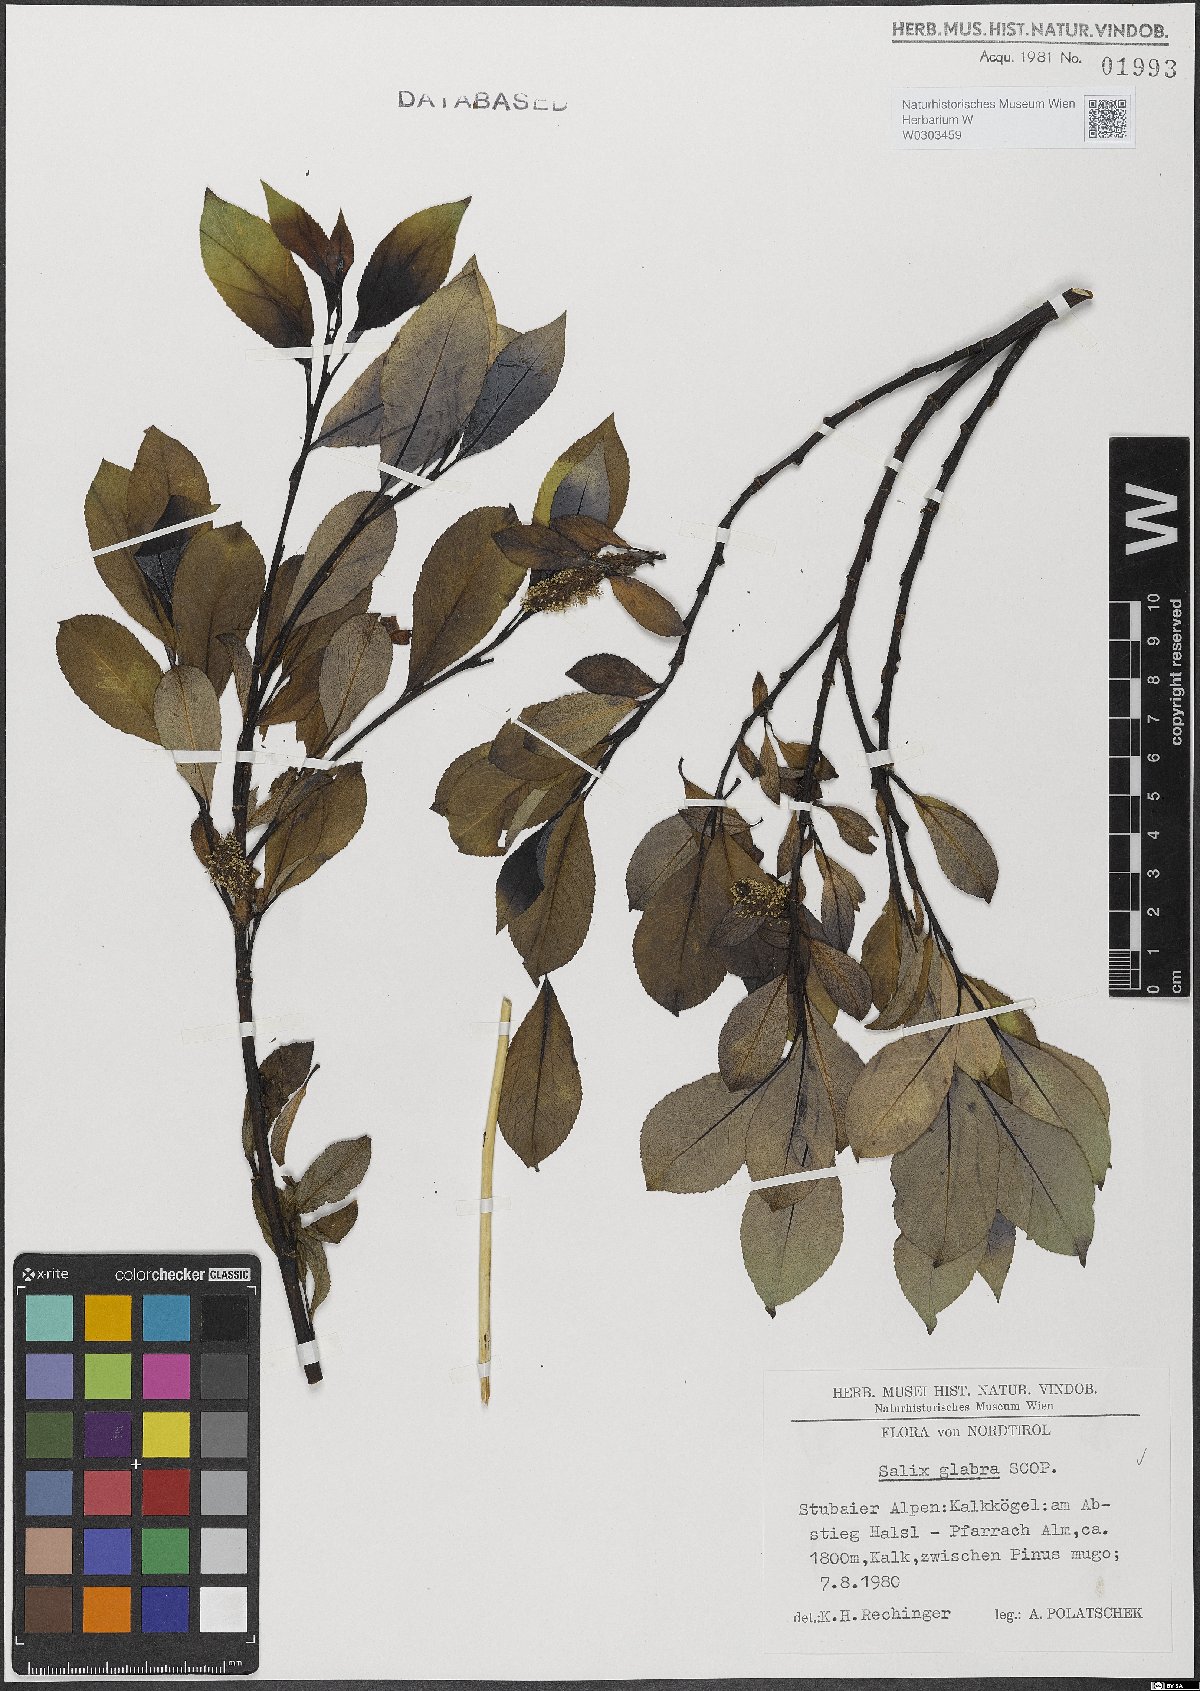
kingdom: Plantae
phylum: Tracheophyta
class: Magnoliopsida
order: Malpighiales
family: Salicaceae
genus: Salix
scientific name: Salix glabra
